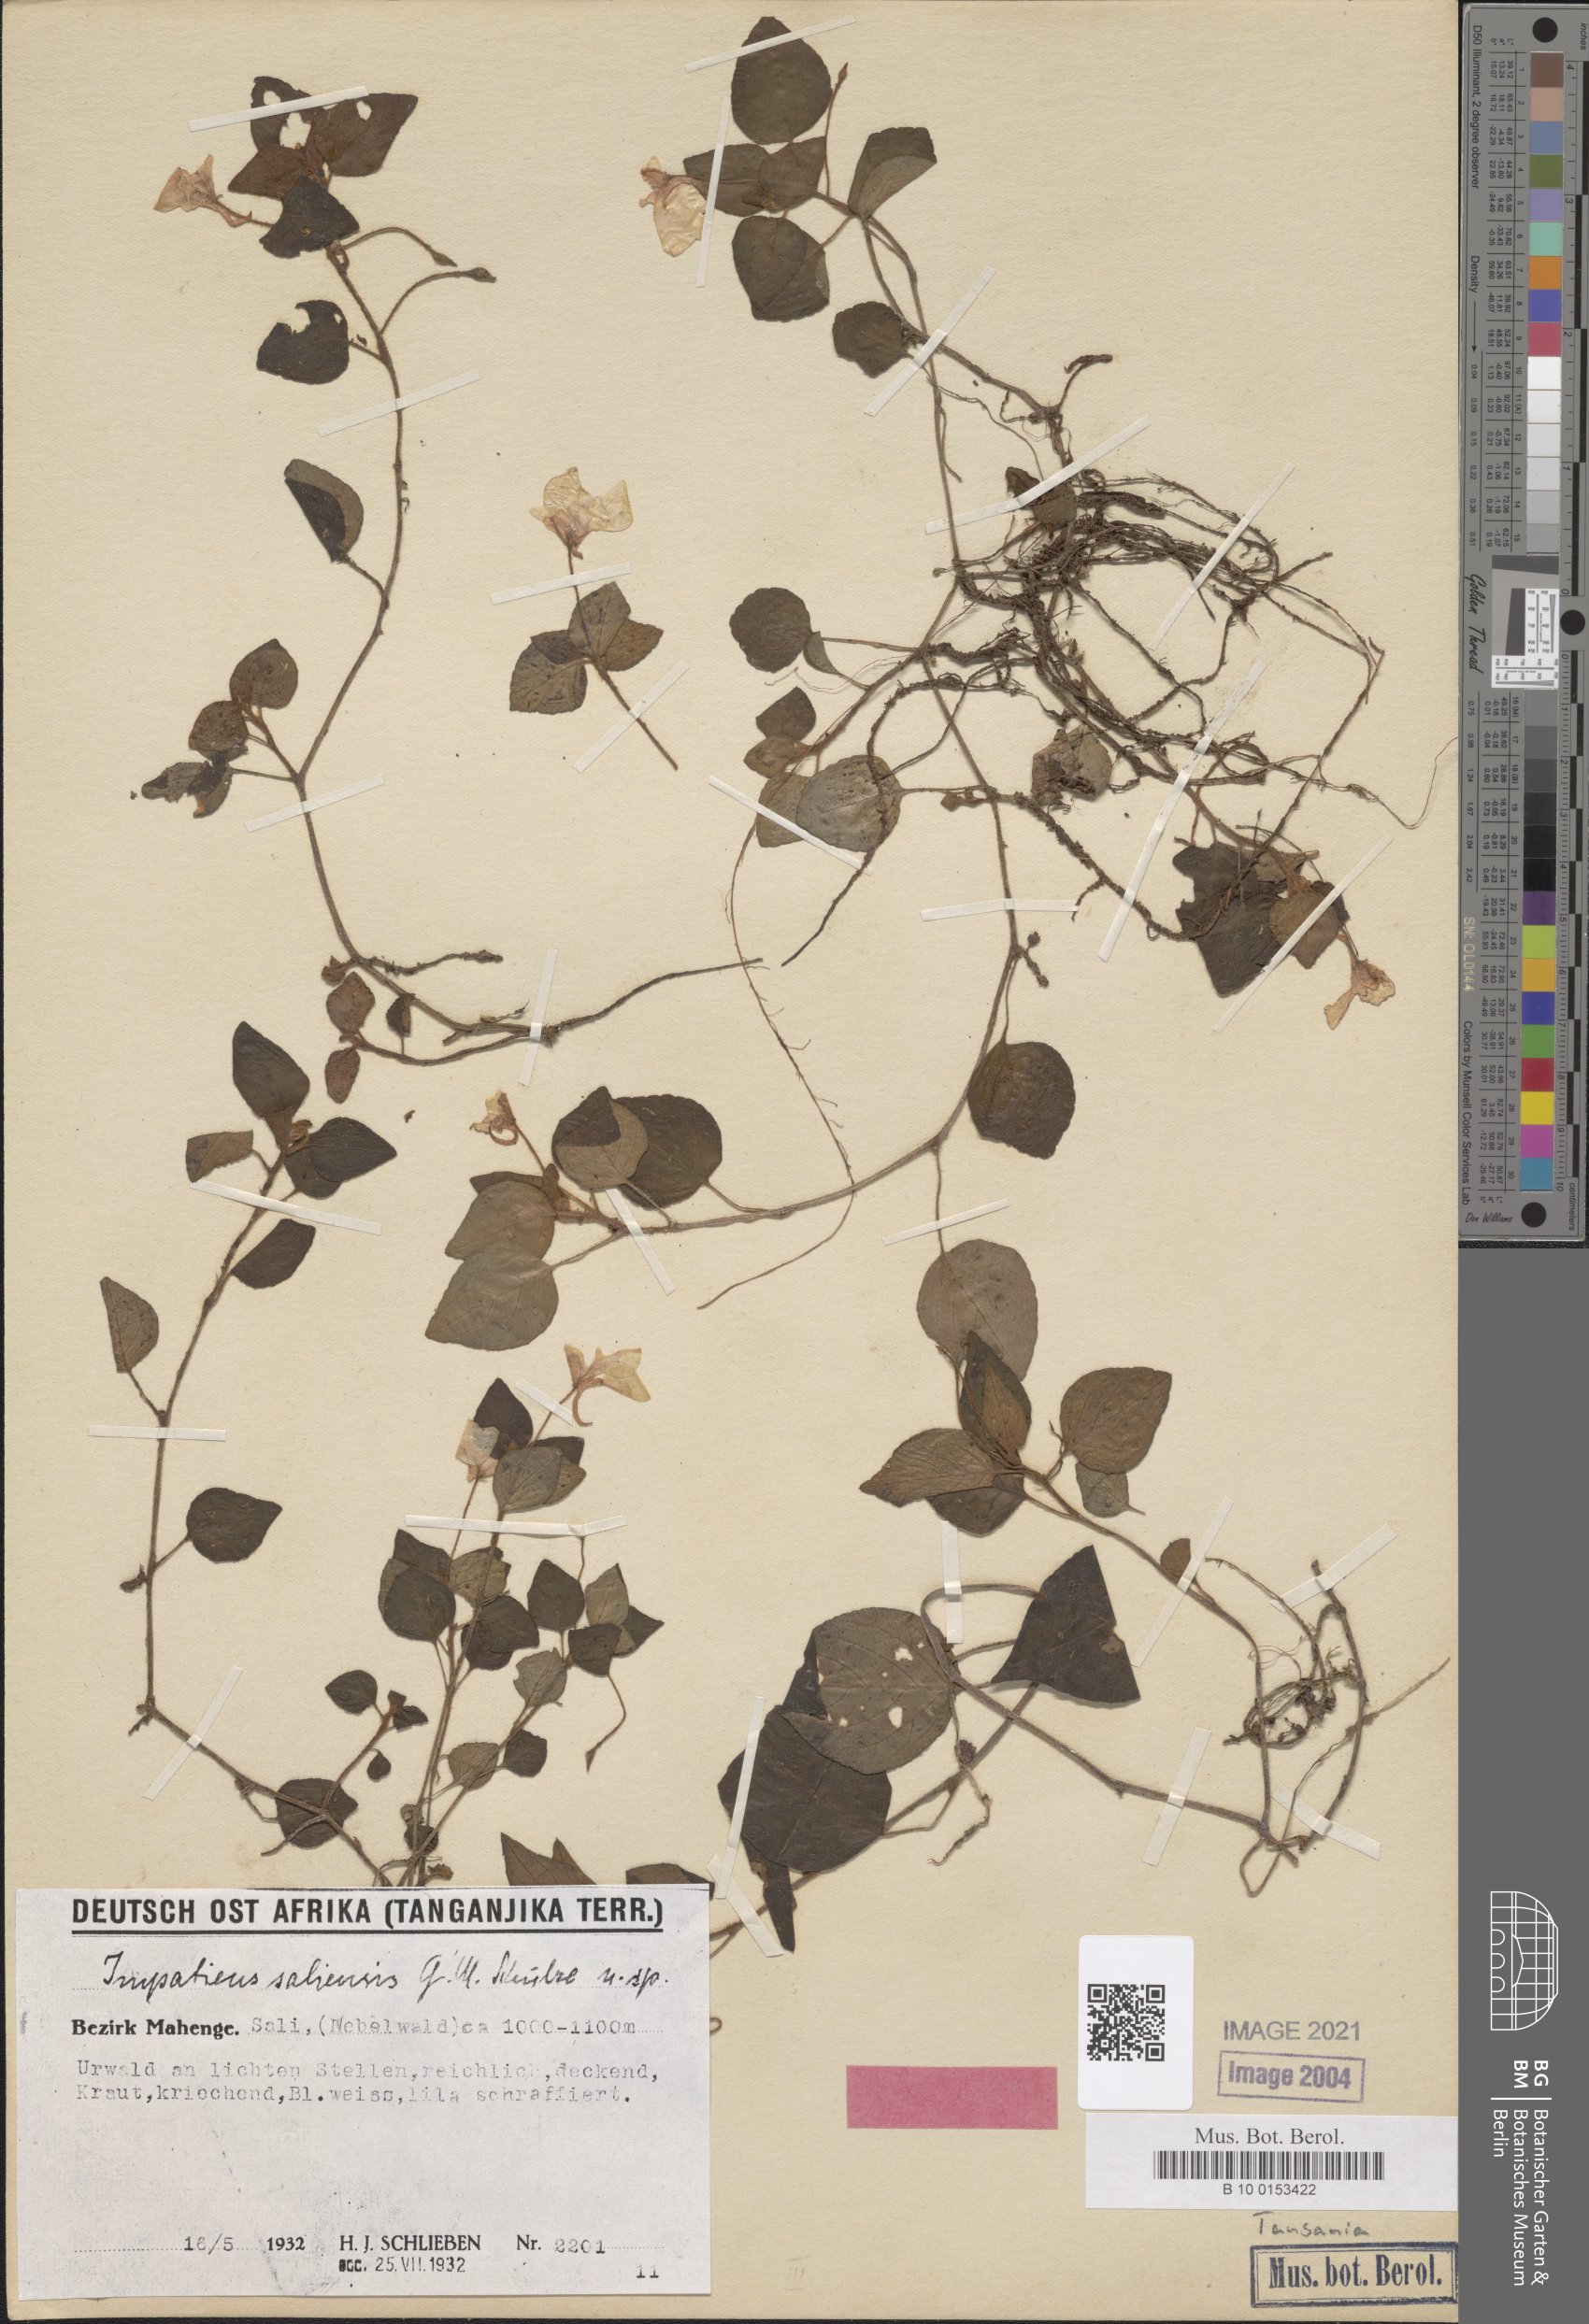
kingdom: Plantae
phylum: Tracheophyta
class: Magnoliopsida
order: Ericales
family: Balsaminaceae
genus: Impatiens
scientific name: Impatiens saliensis
